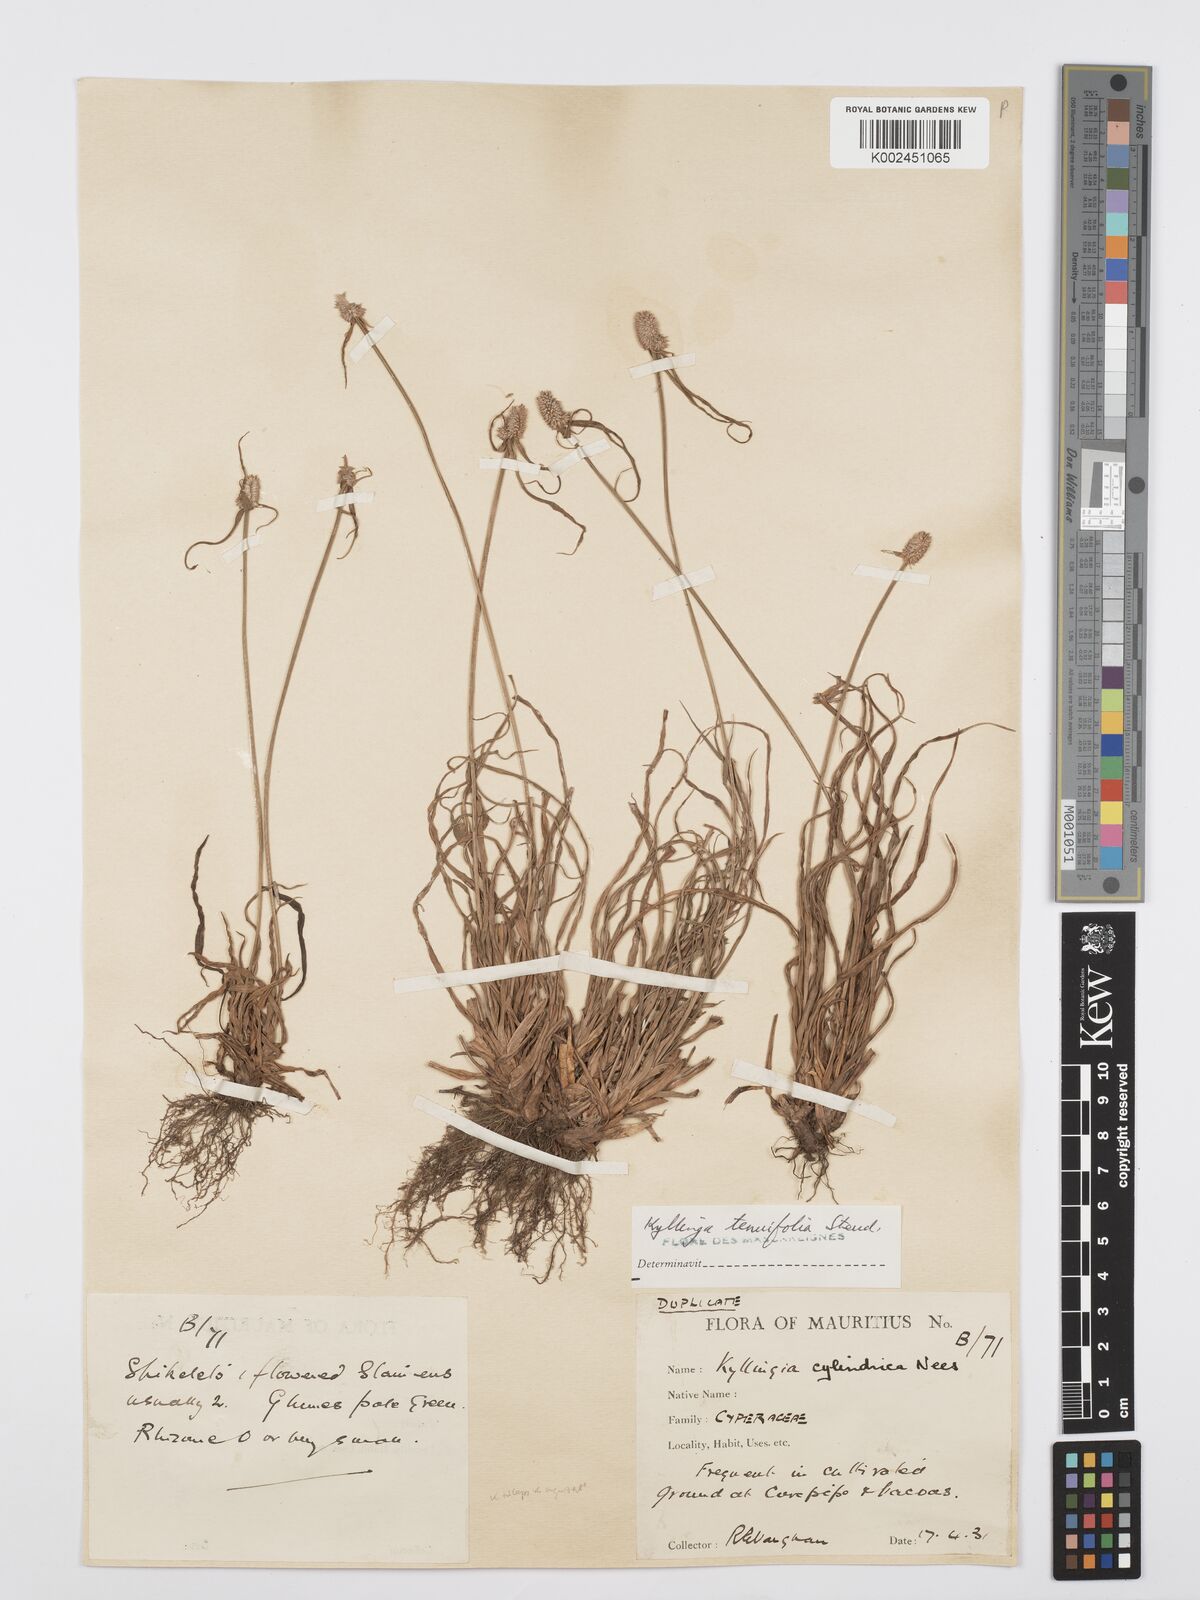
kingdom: Plantae
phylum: Tracheophyta
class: Liliopsida
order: Poales
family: Cyperaceae
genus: Cyperus
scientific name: Cyperus pumilus
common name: Low flatsedge
